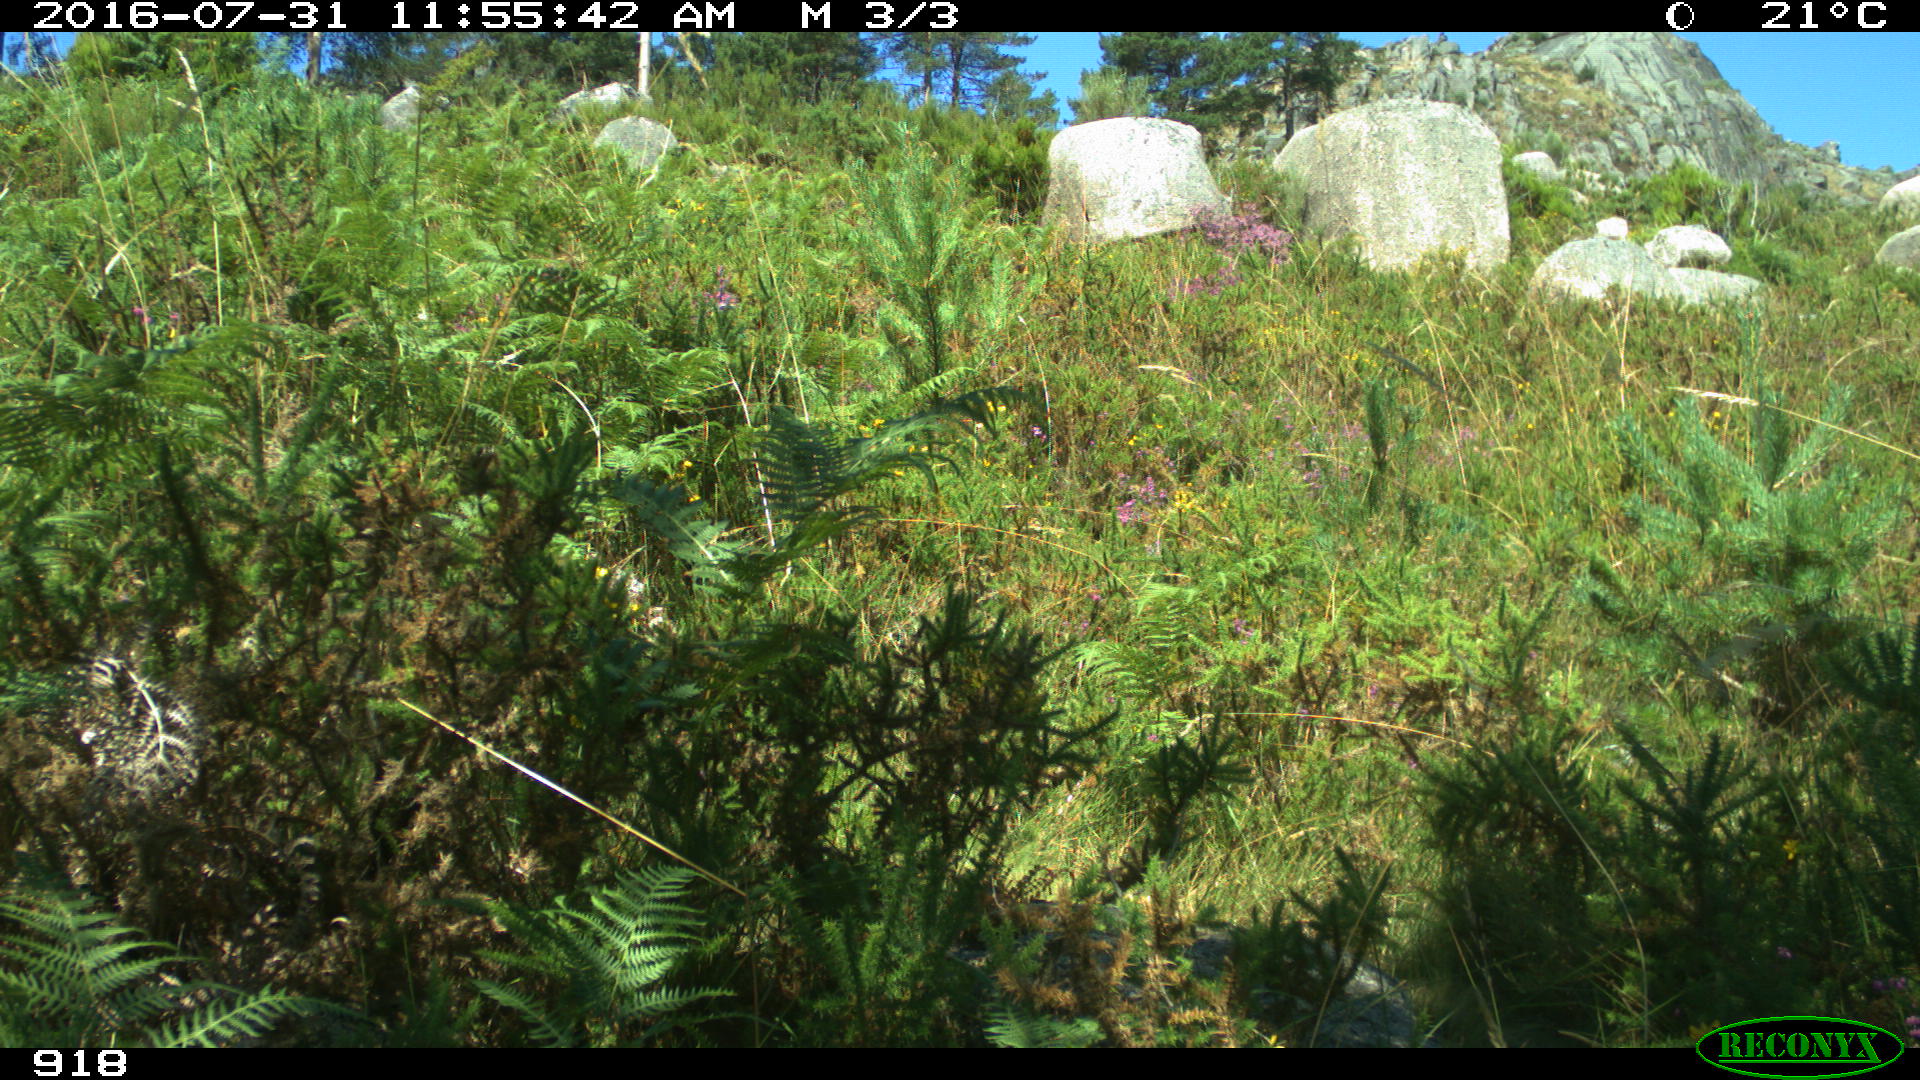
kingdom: Animalia
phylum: Chordata
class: Mammalia
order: Carnivora
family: Canidae
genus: Canis
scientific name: Canis lupus
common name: Gray wolf
